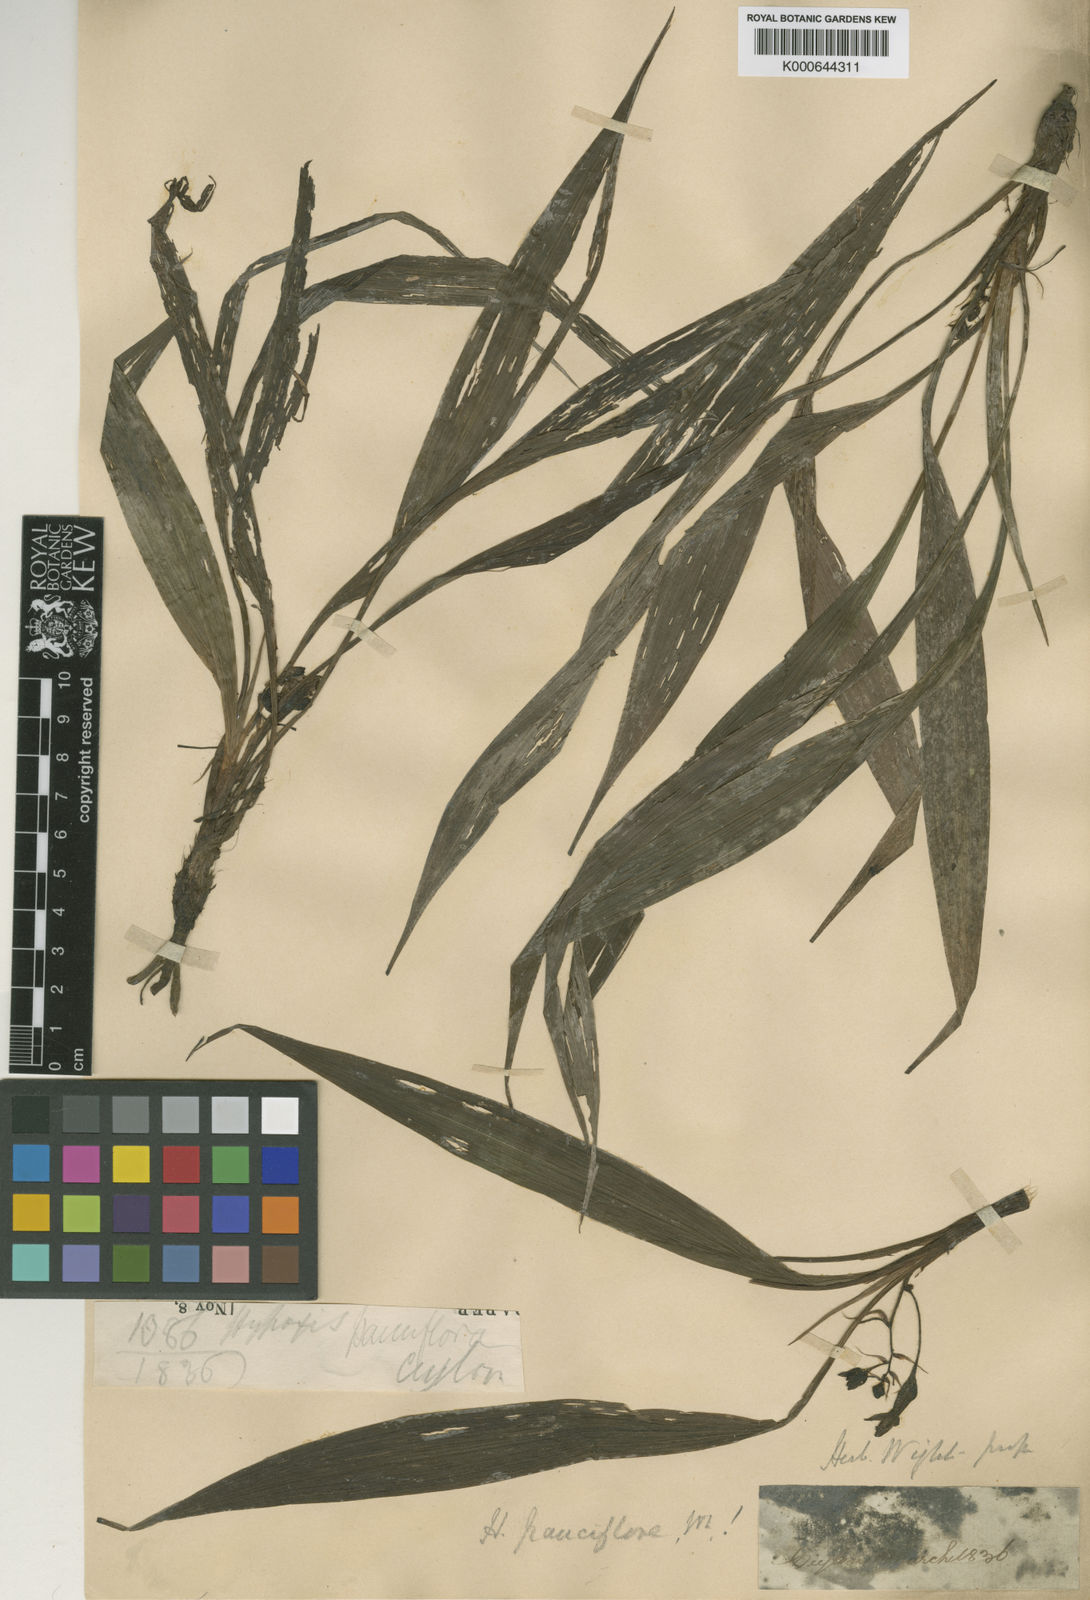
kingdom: Plantae
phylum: Tracheophyta
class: Liliopsida
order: Asparagales
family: Hypoxidaceae
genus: Curculigo
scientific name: Curculigo trichocarpa
